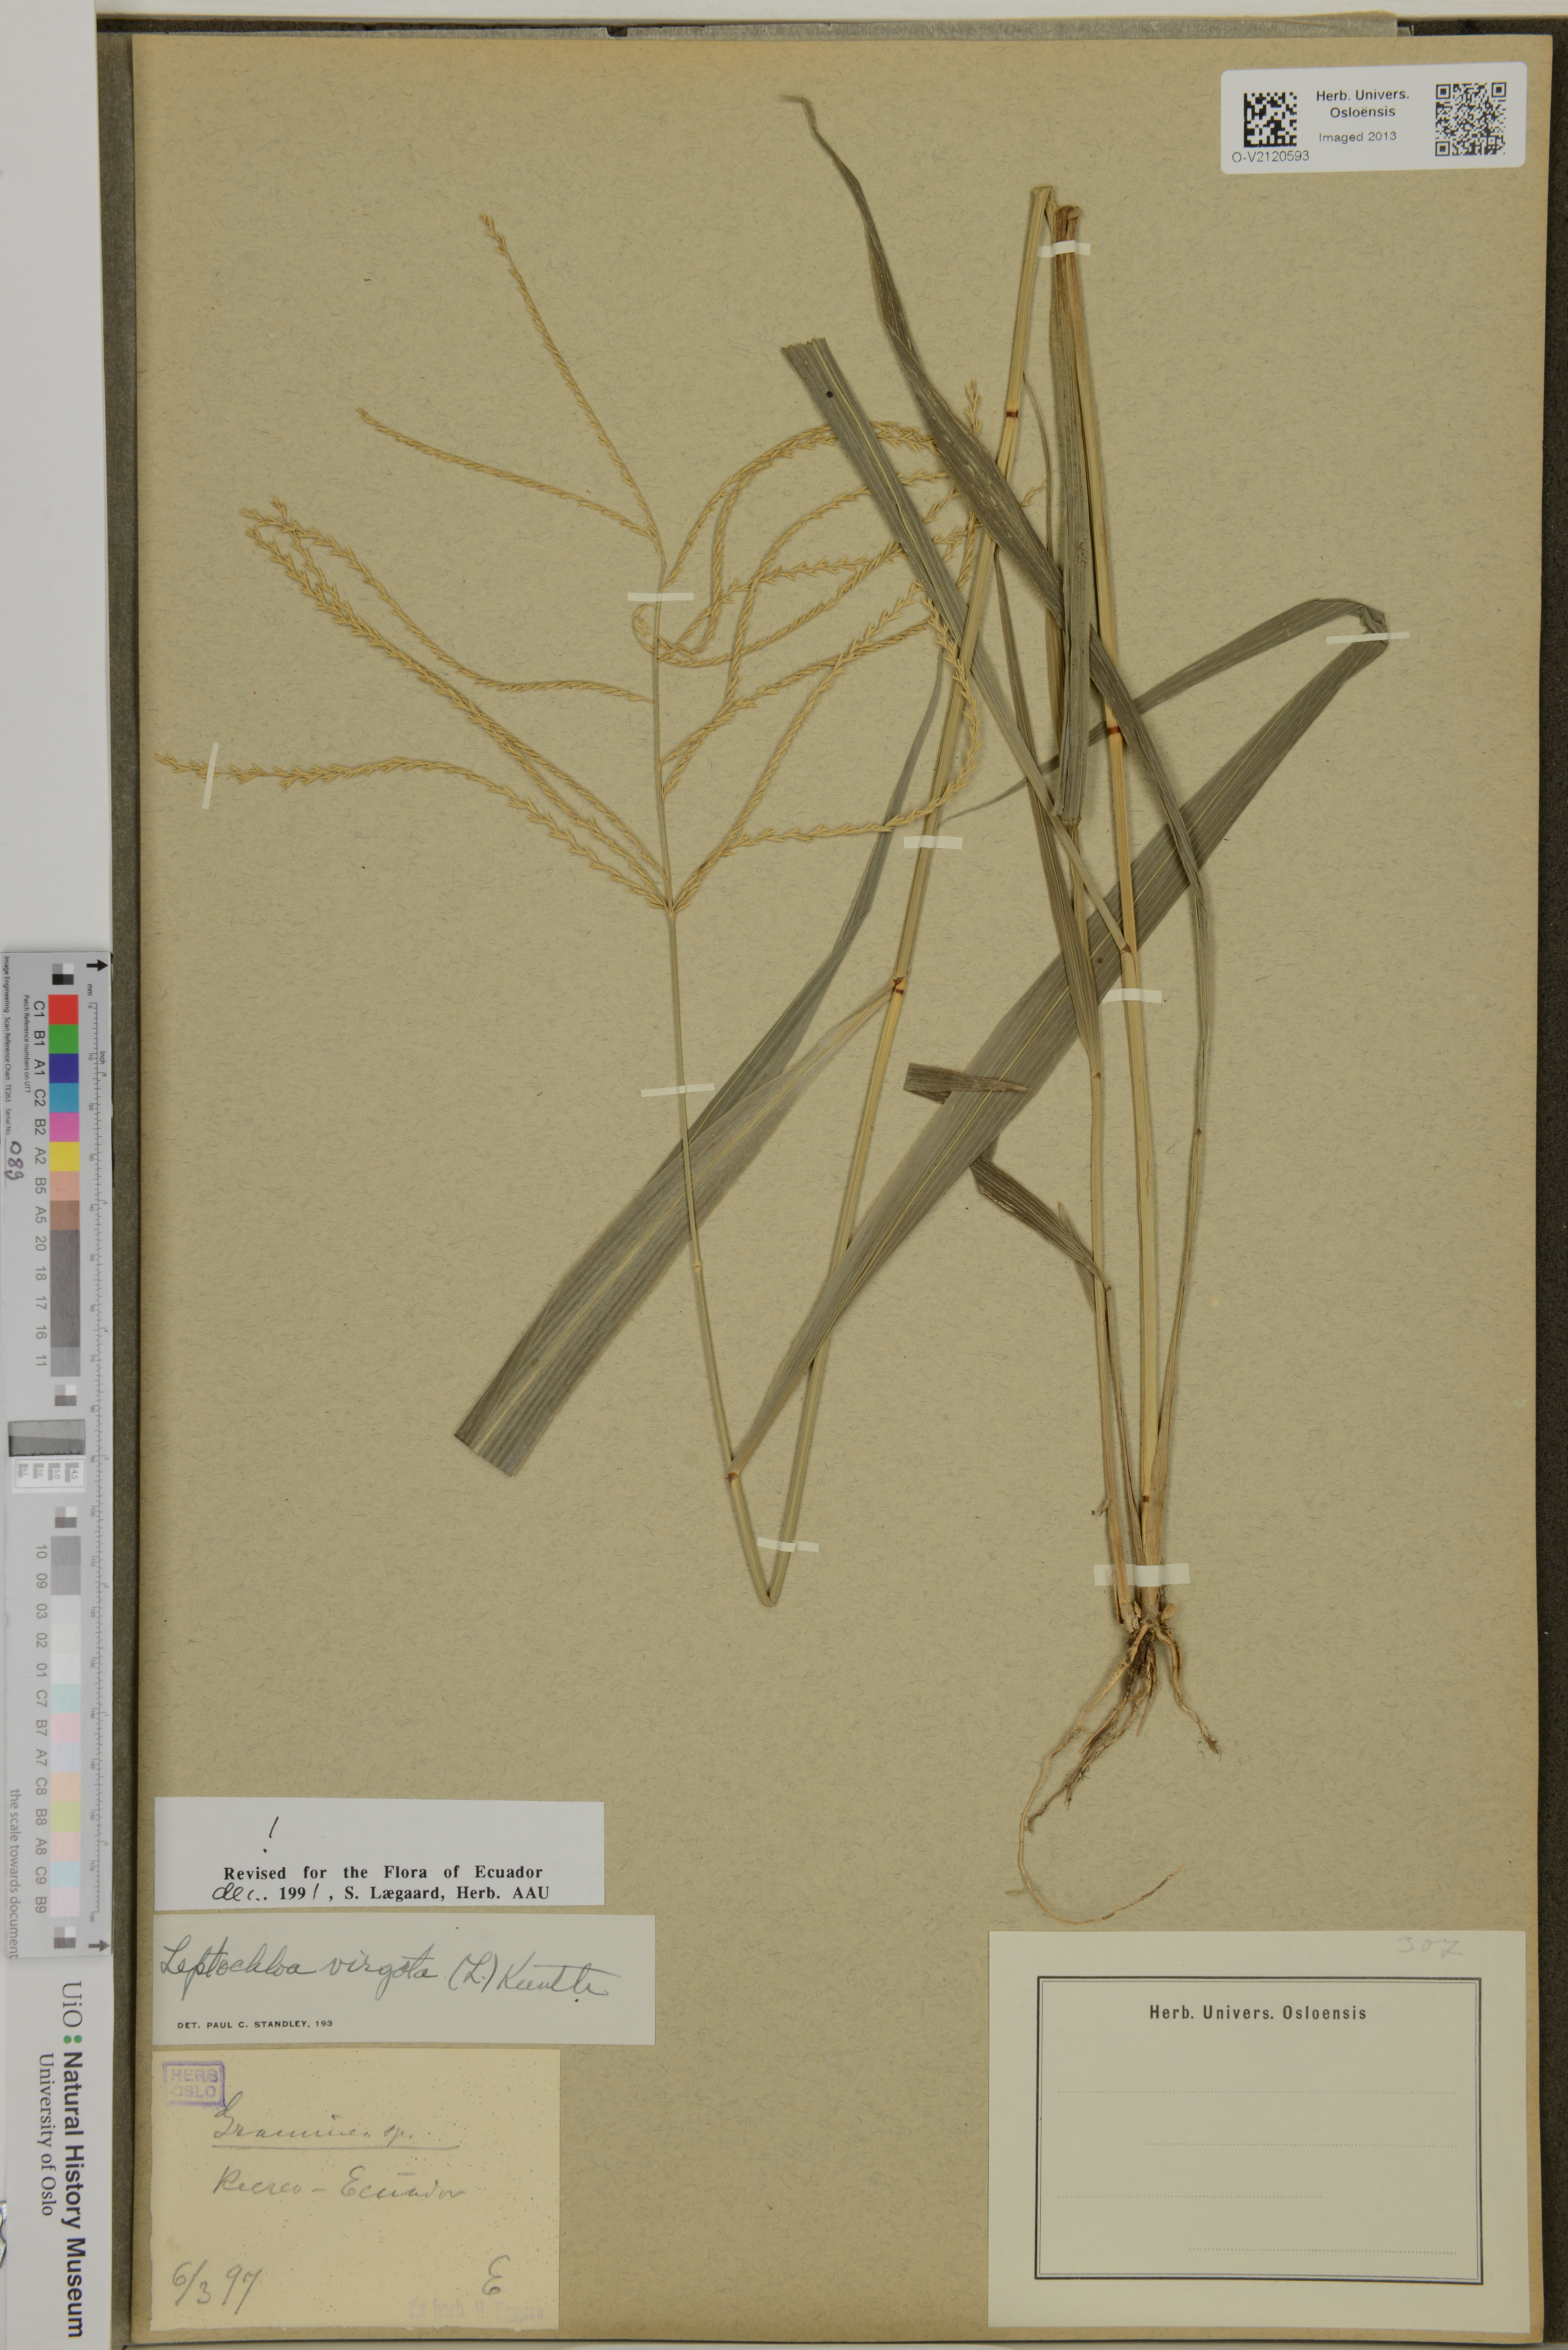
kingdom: Plantae
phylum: Tracheophyta
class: Liliopsida
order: Poales
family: Poaceae
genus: Leptochloa
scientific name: Leptochloa virgata
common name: Tropical sprangletop
